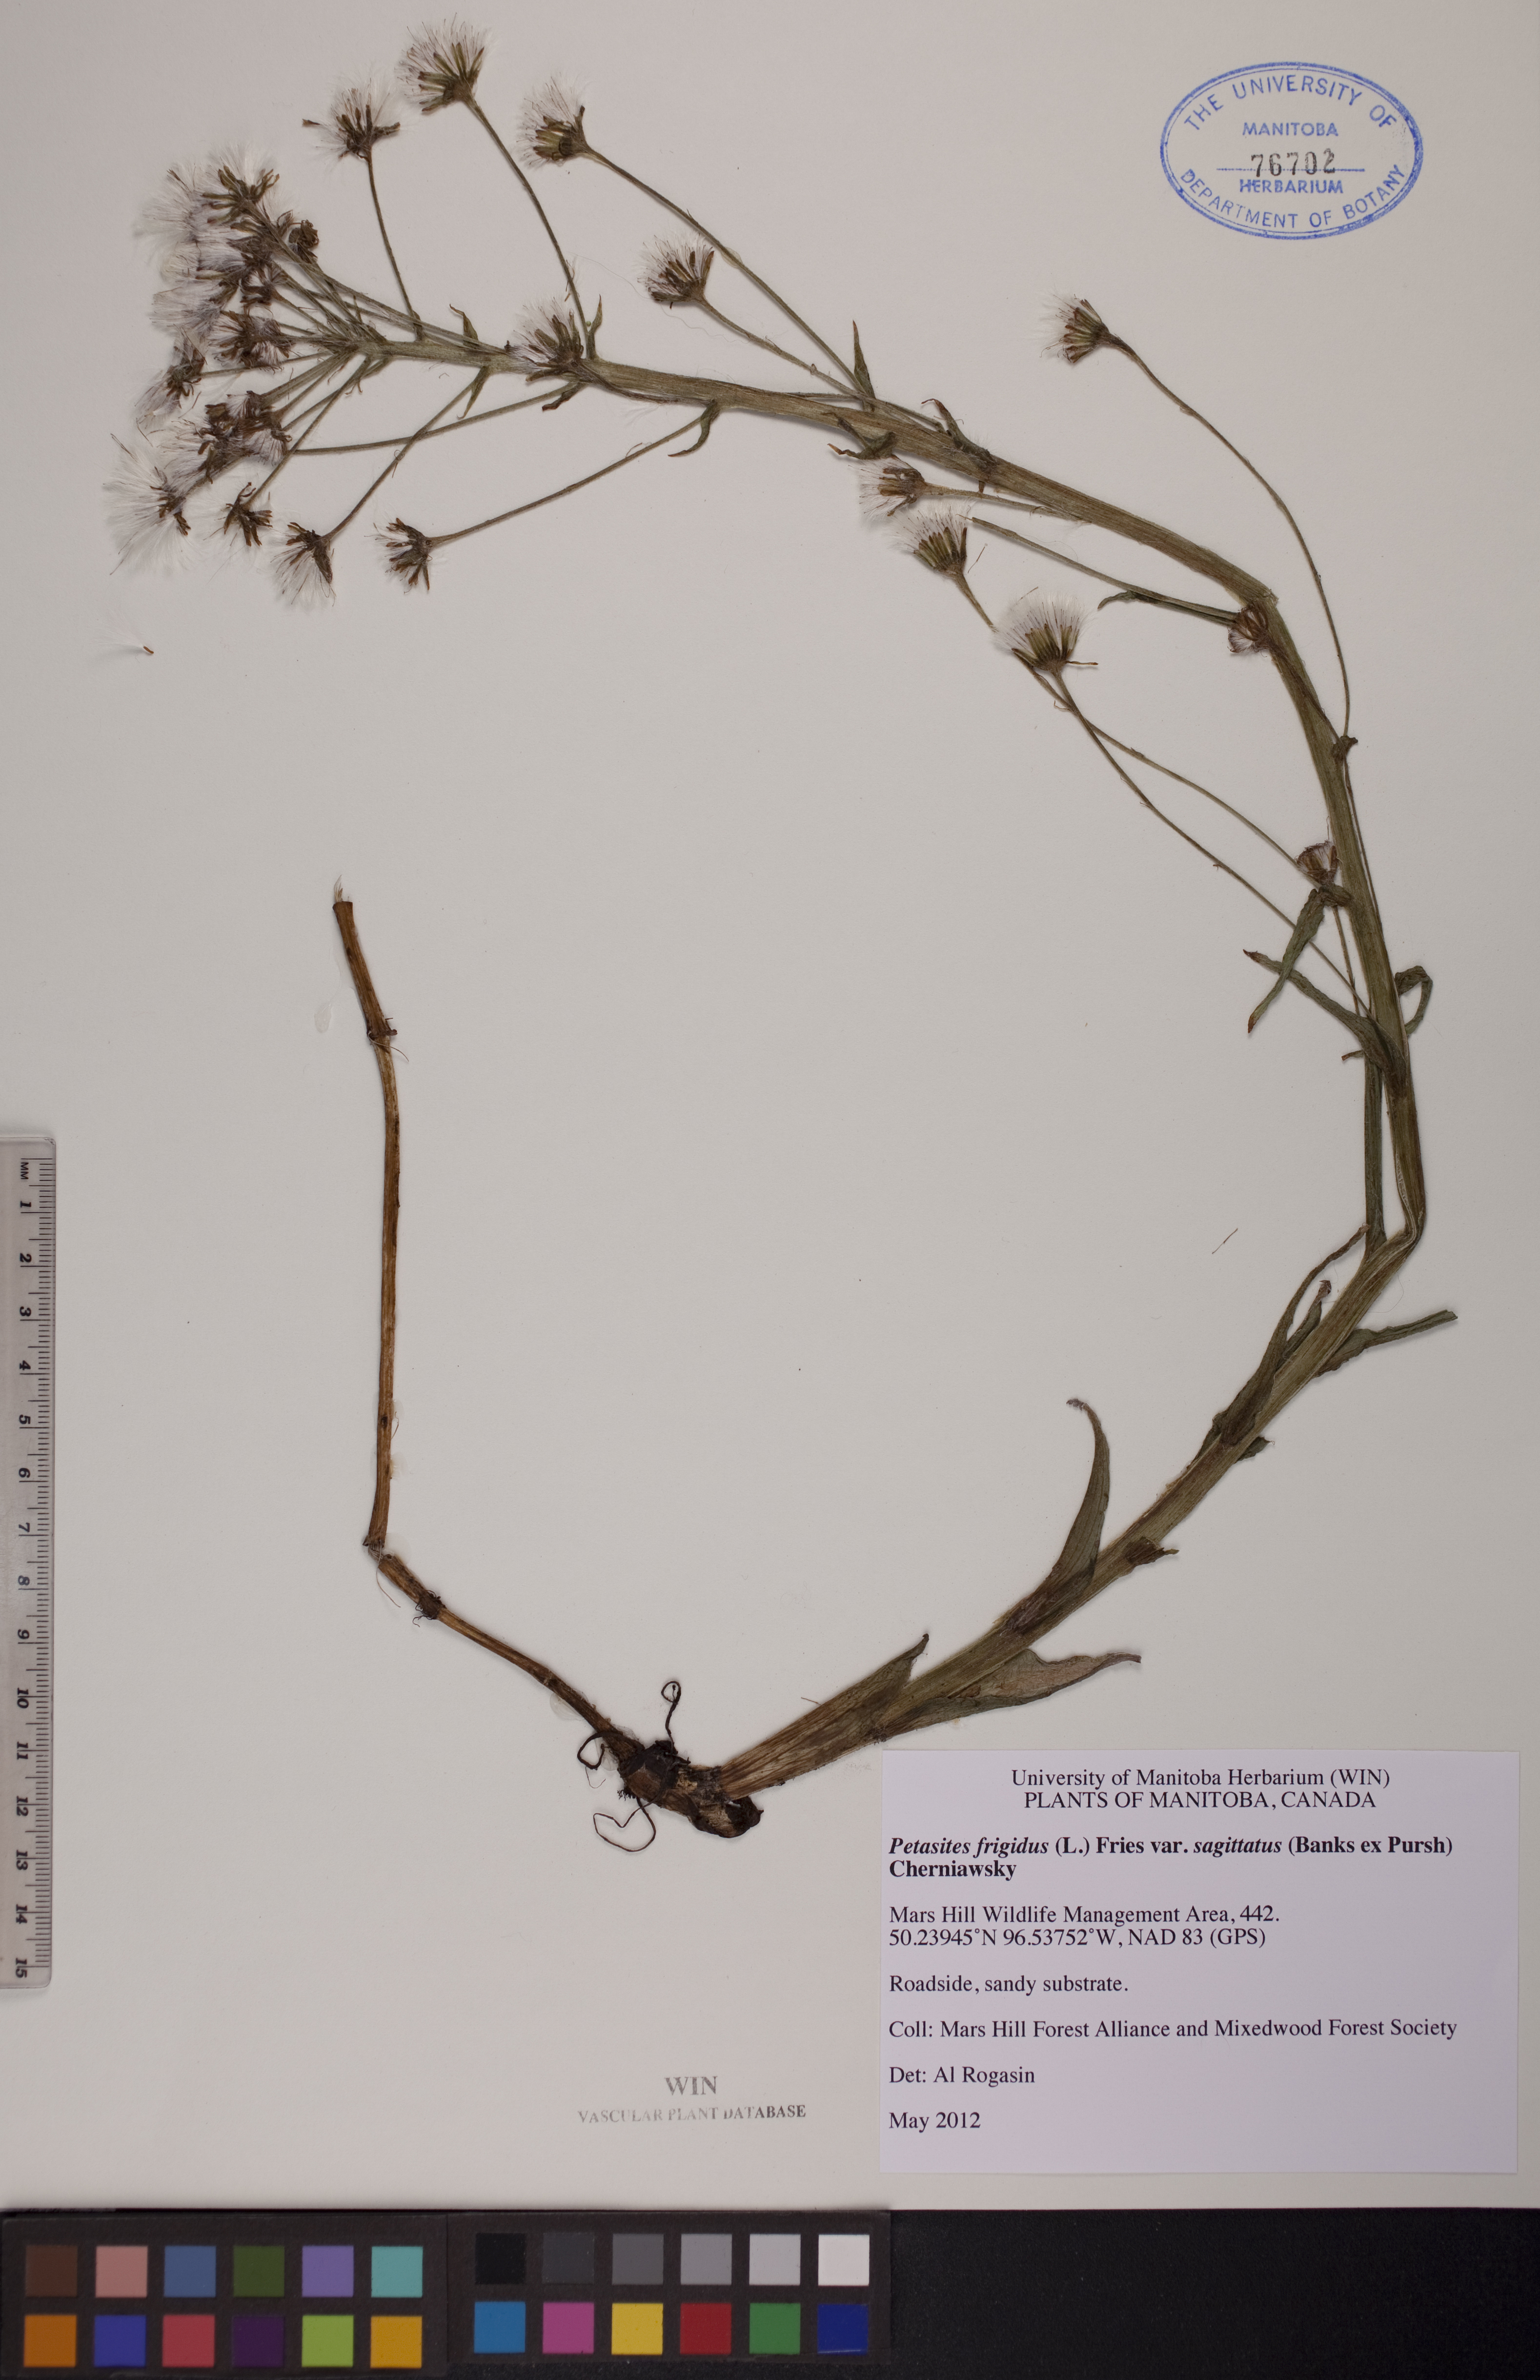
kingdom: Plantae
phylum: Tracheophyta
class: Magnoliopsida
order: Asterales
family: Asteraceae
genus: Petasites
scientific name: Petasites frigidus
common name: Arctic butterbur
